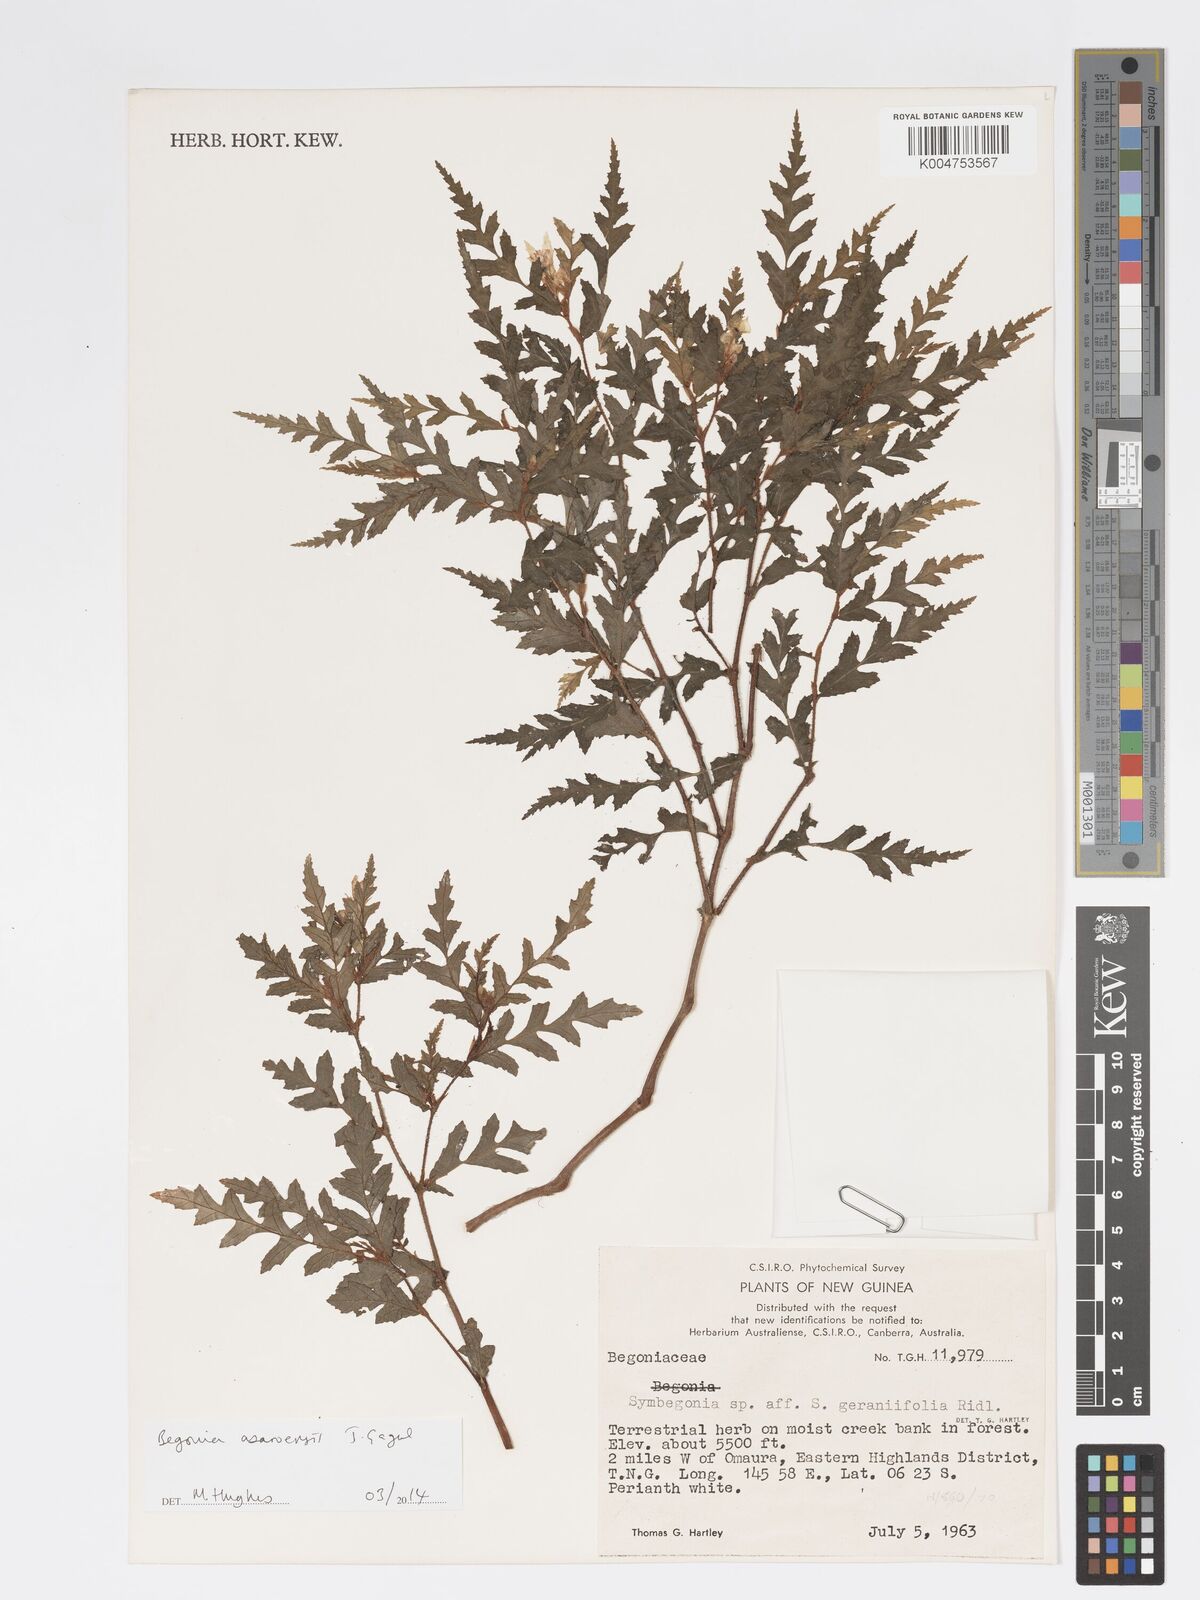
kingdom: Plantae
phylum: Tracheophyta
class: Magnoliopsida
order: Cucurbitales
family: Begoniaceae
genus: Begonia
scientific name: Begonia asaroensis
